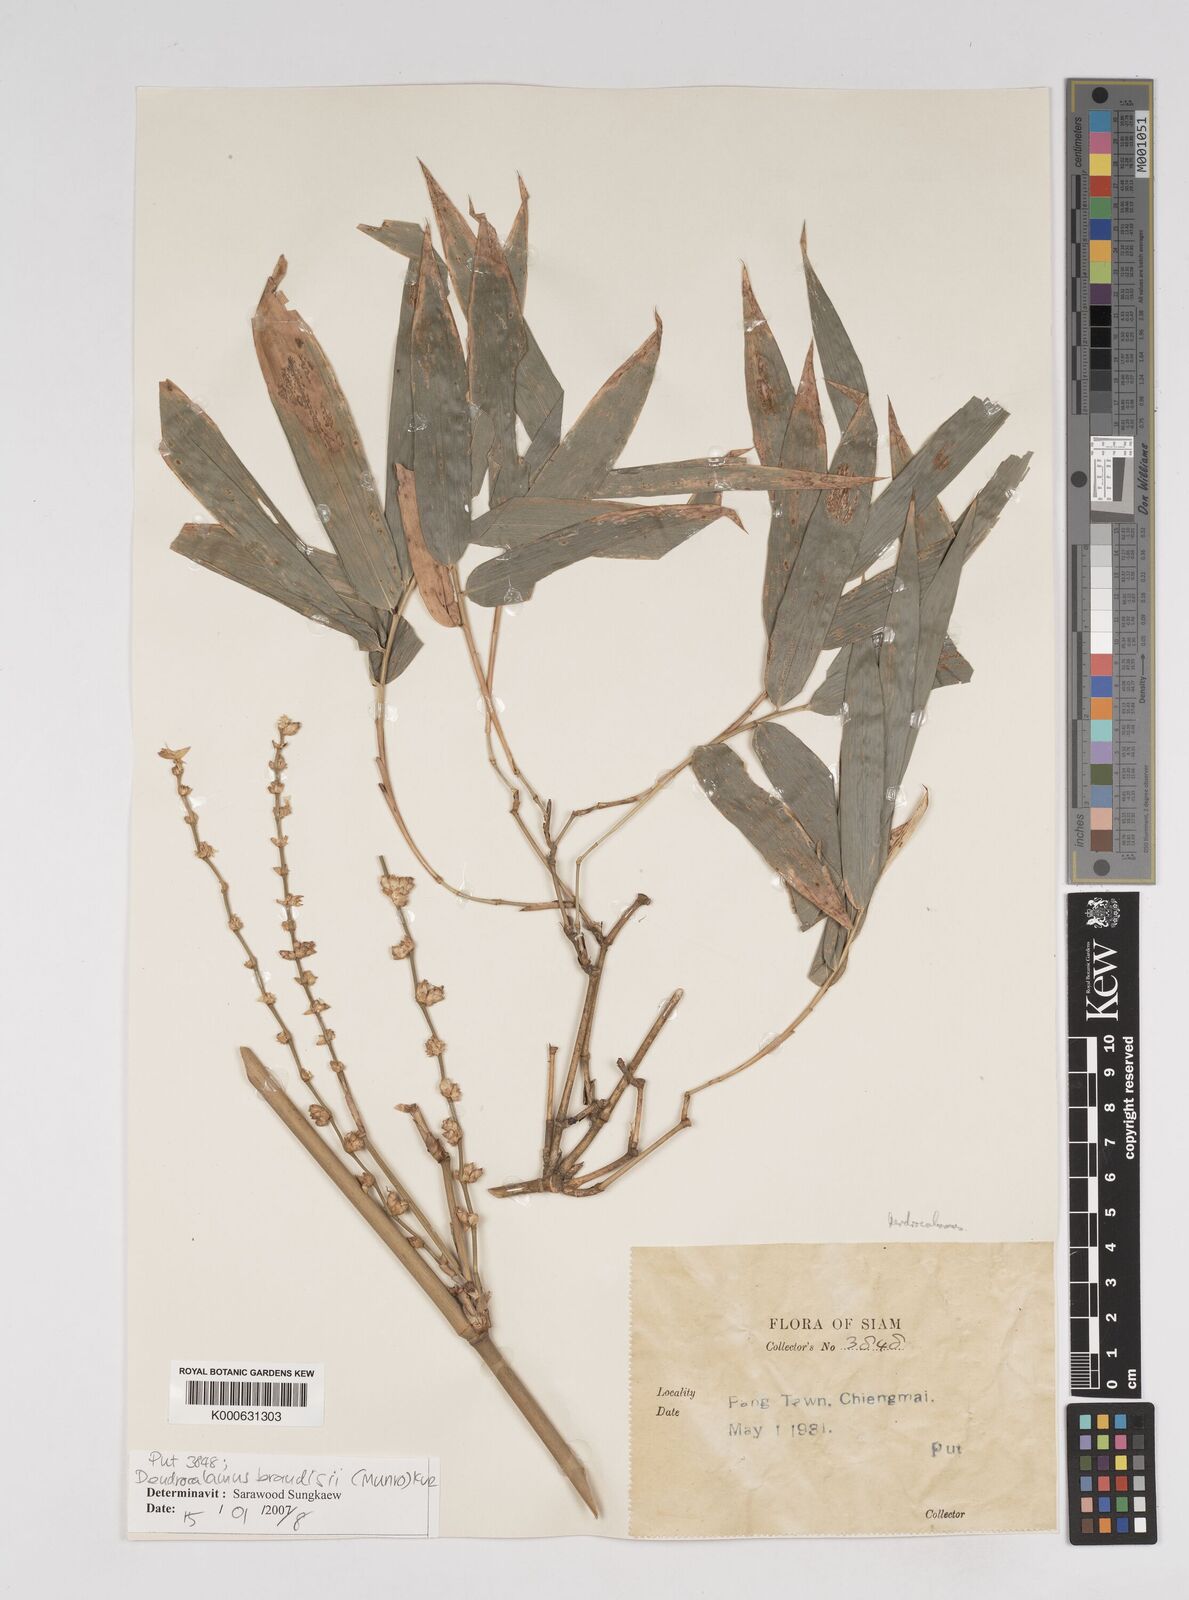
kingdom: Plantae
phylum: Tracheophyta
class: Liliopsida
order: Poales
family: Poaceae
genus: Dendrocalamus
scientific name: Dendrocalamus brandisii
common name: Velvetleaf bamboo
